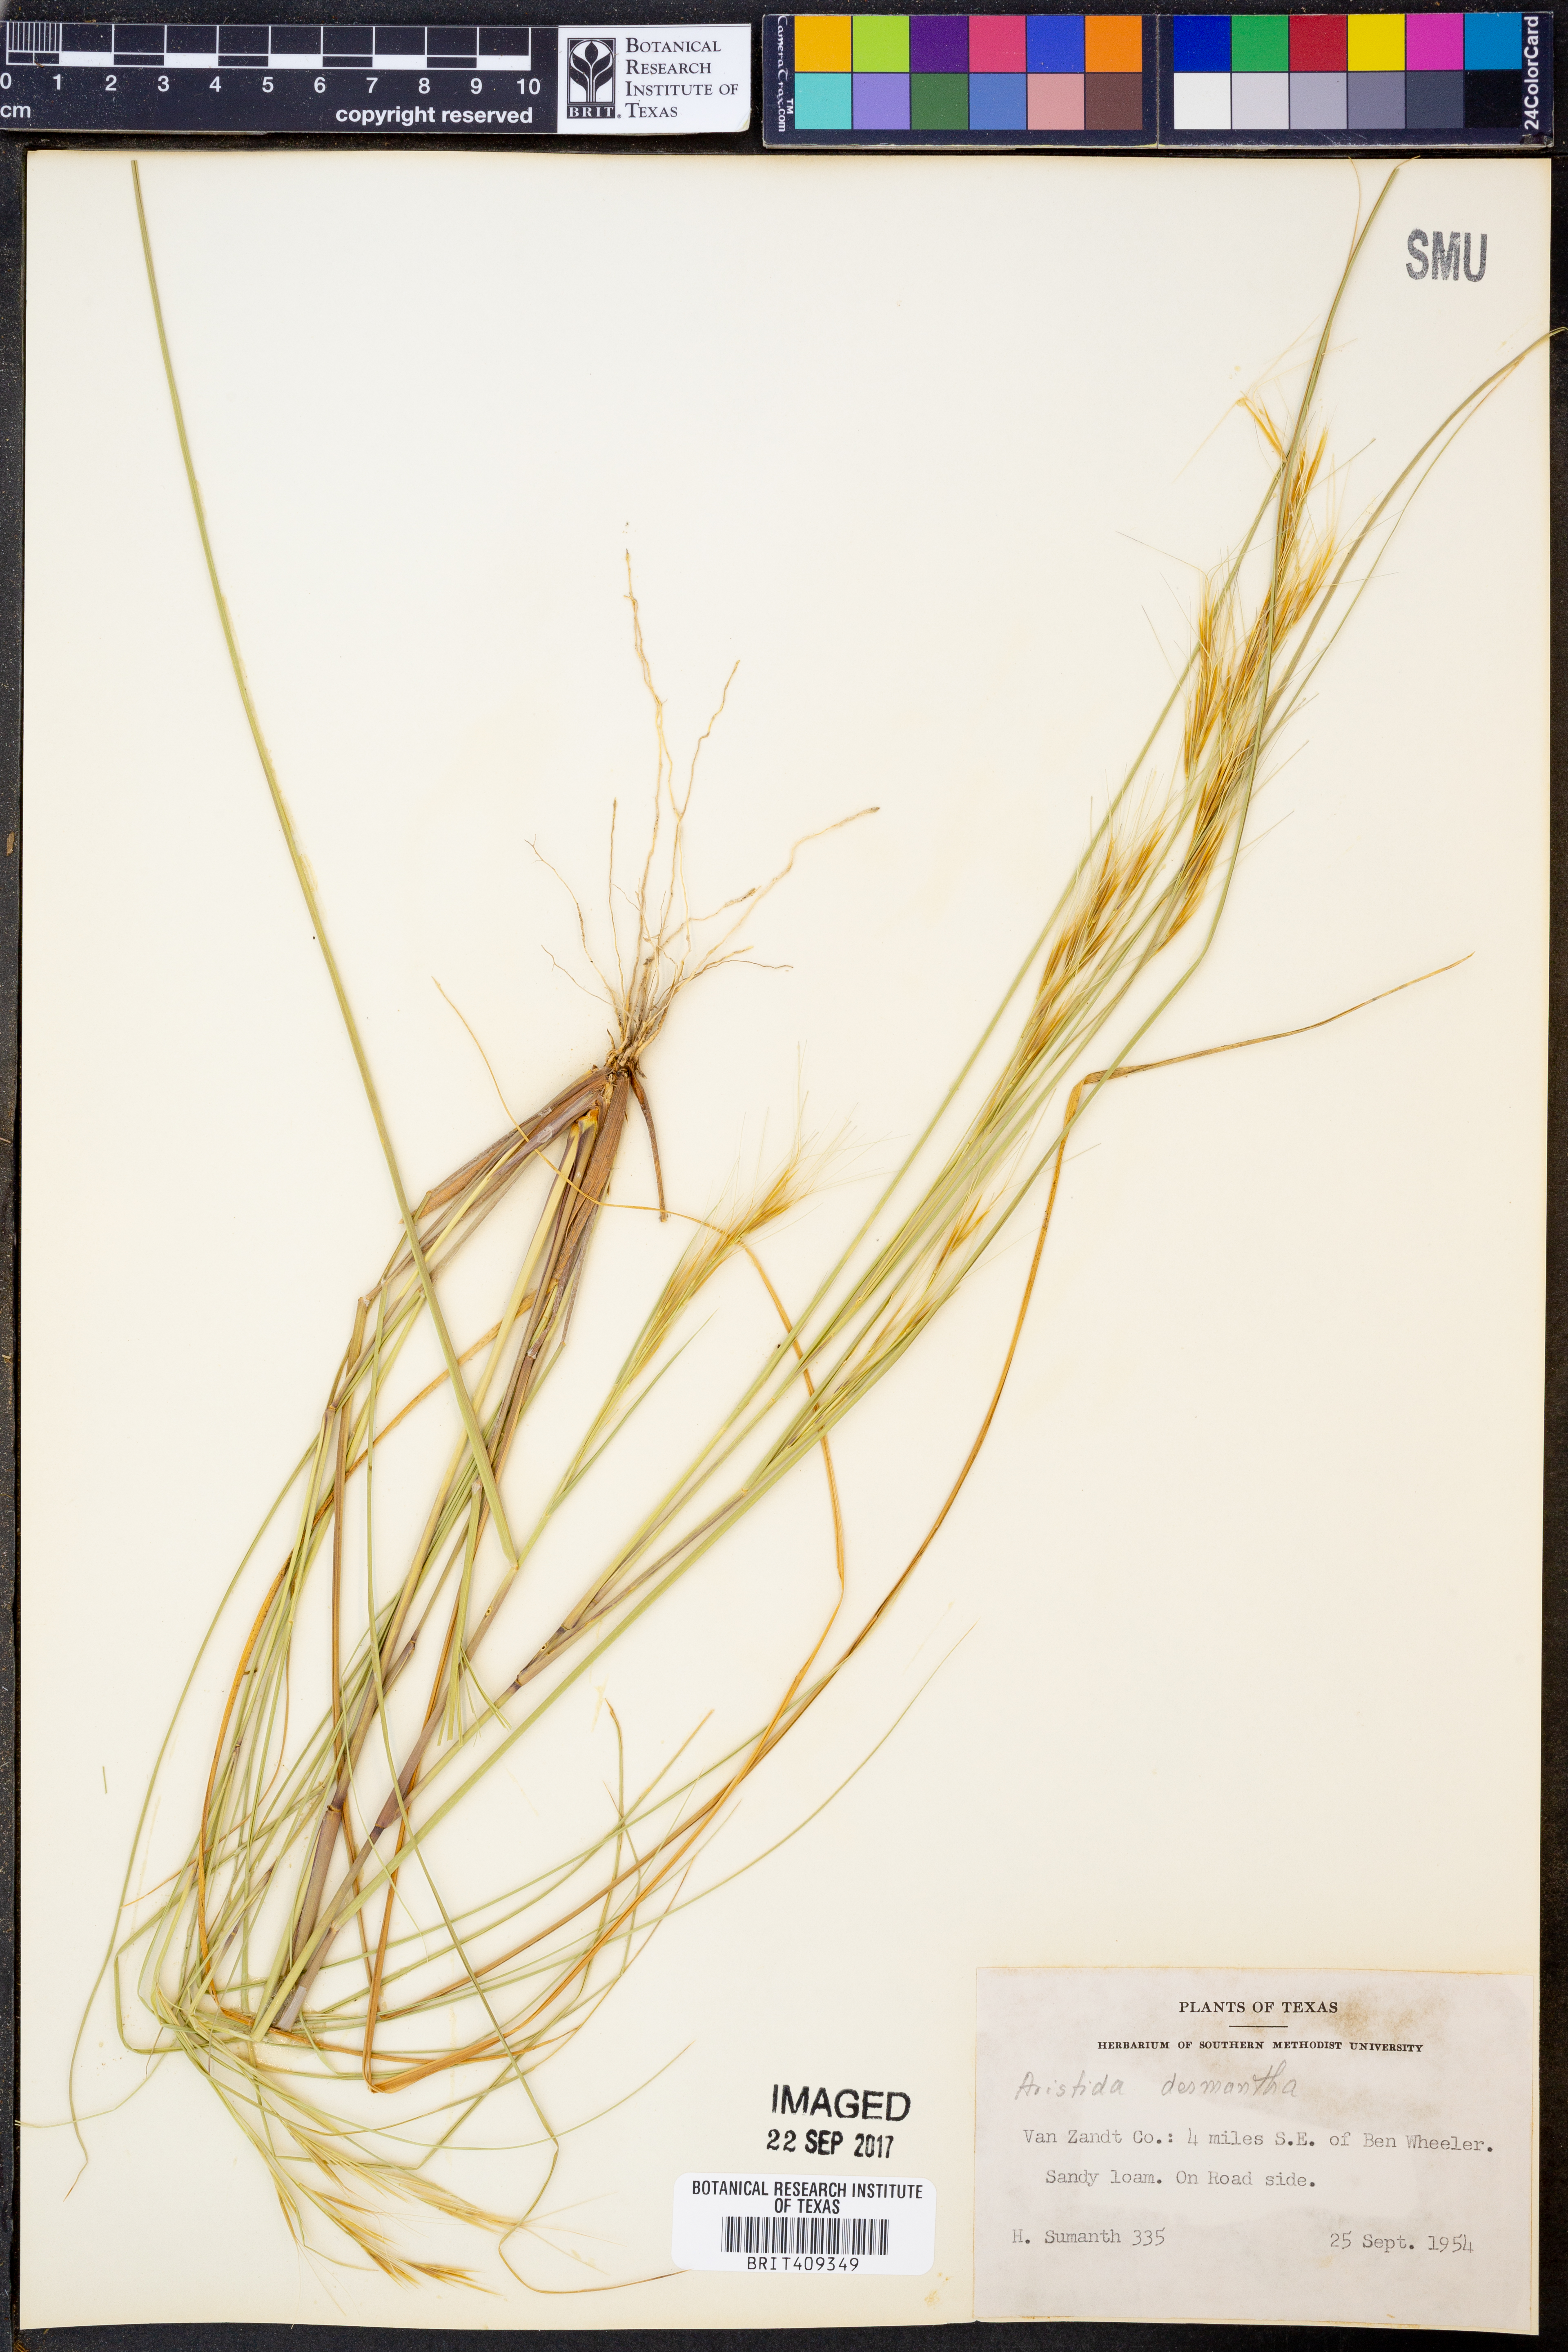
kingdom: Plantae
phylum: Tracheophyta
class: Liliopsida
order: Poales
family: Poaceae
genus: Aristida
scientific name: Aristida desmantha
